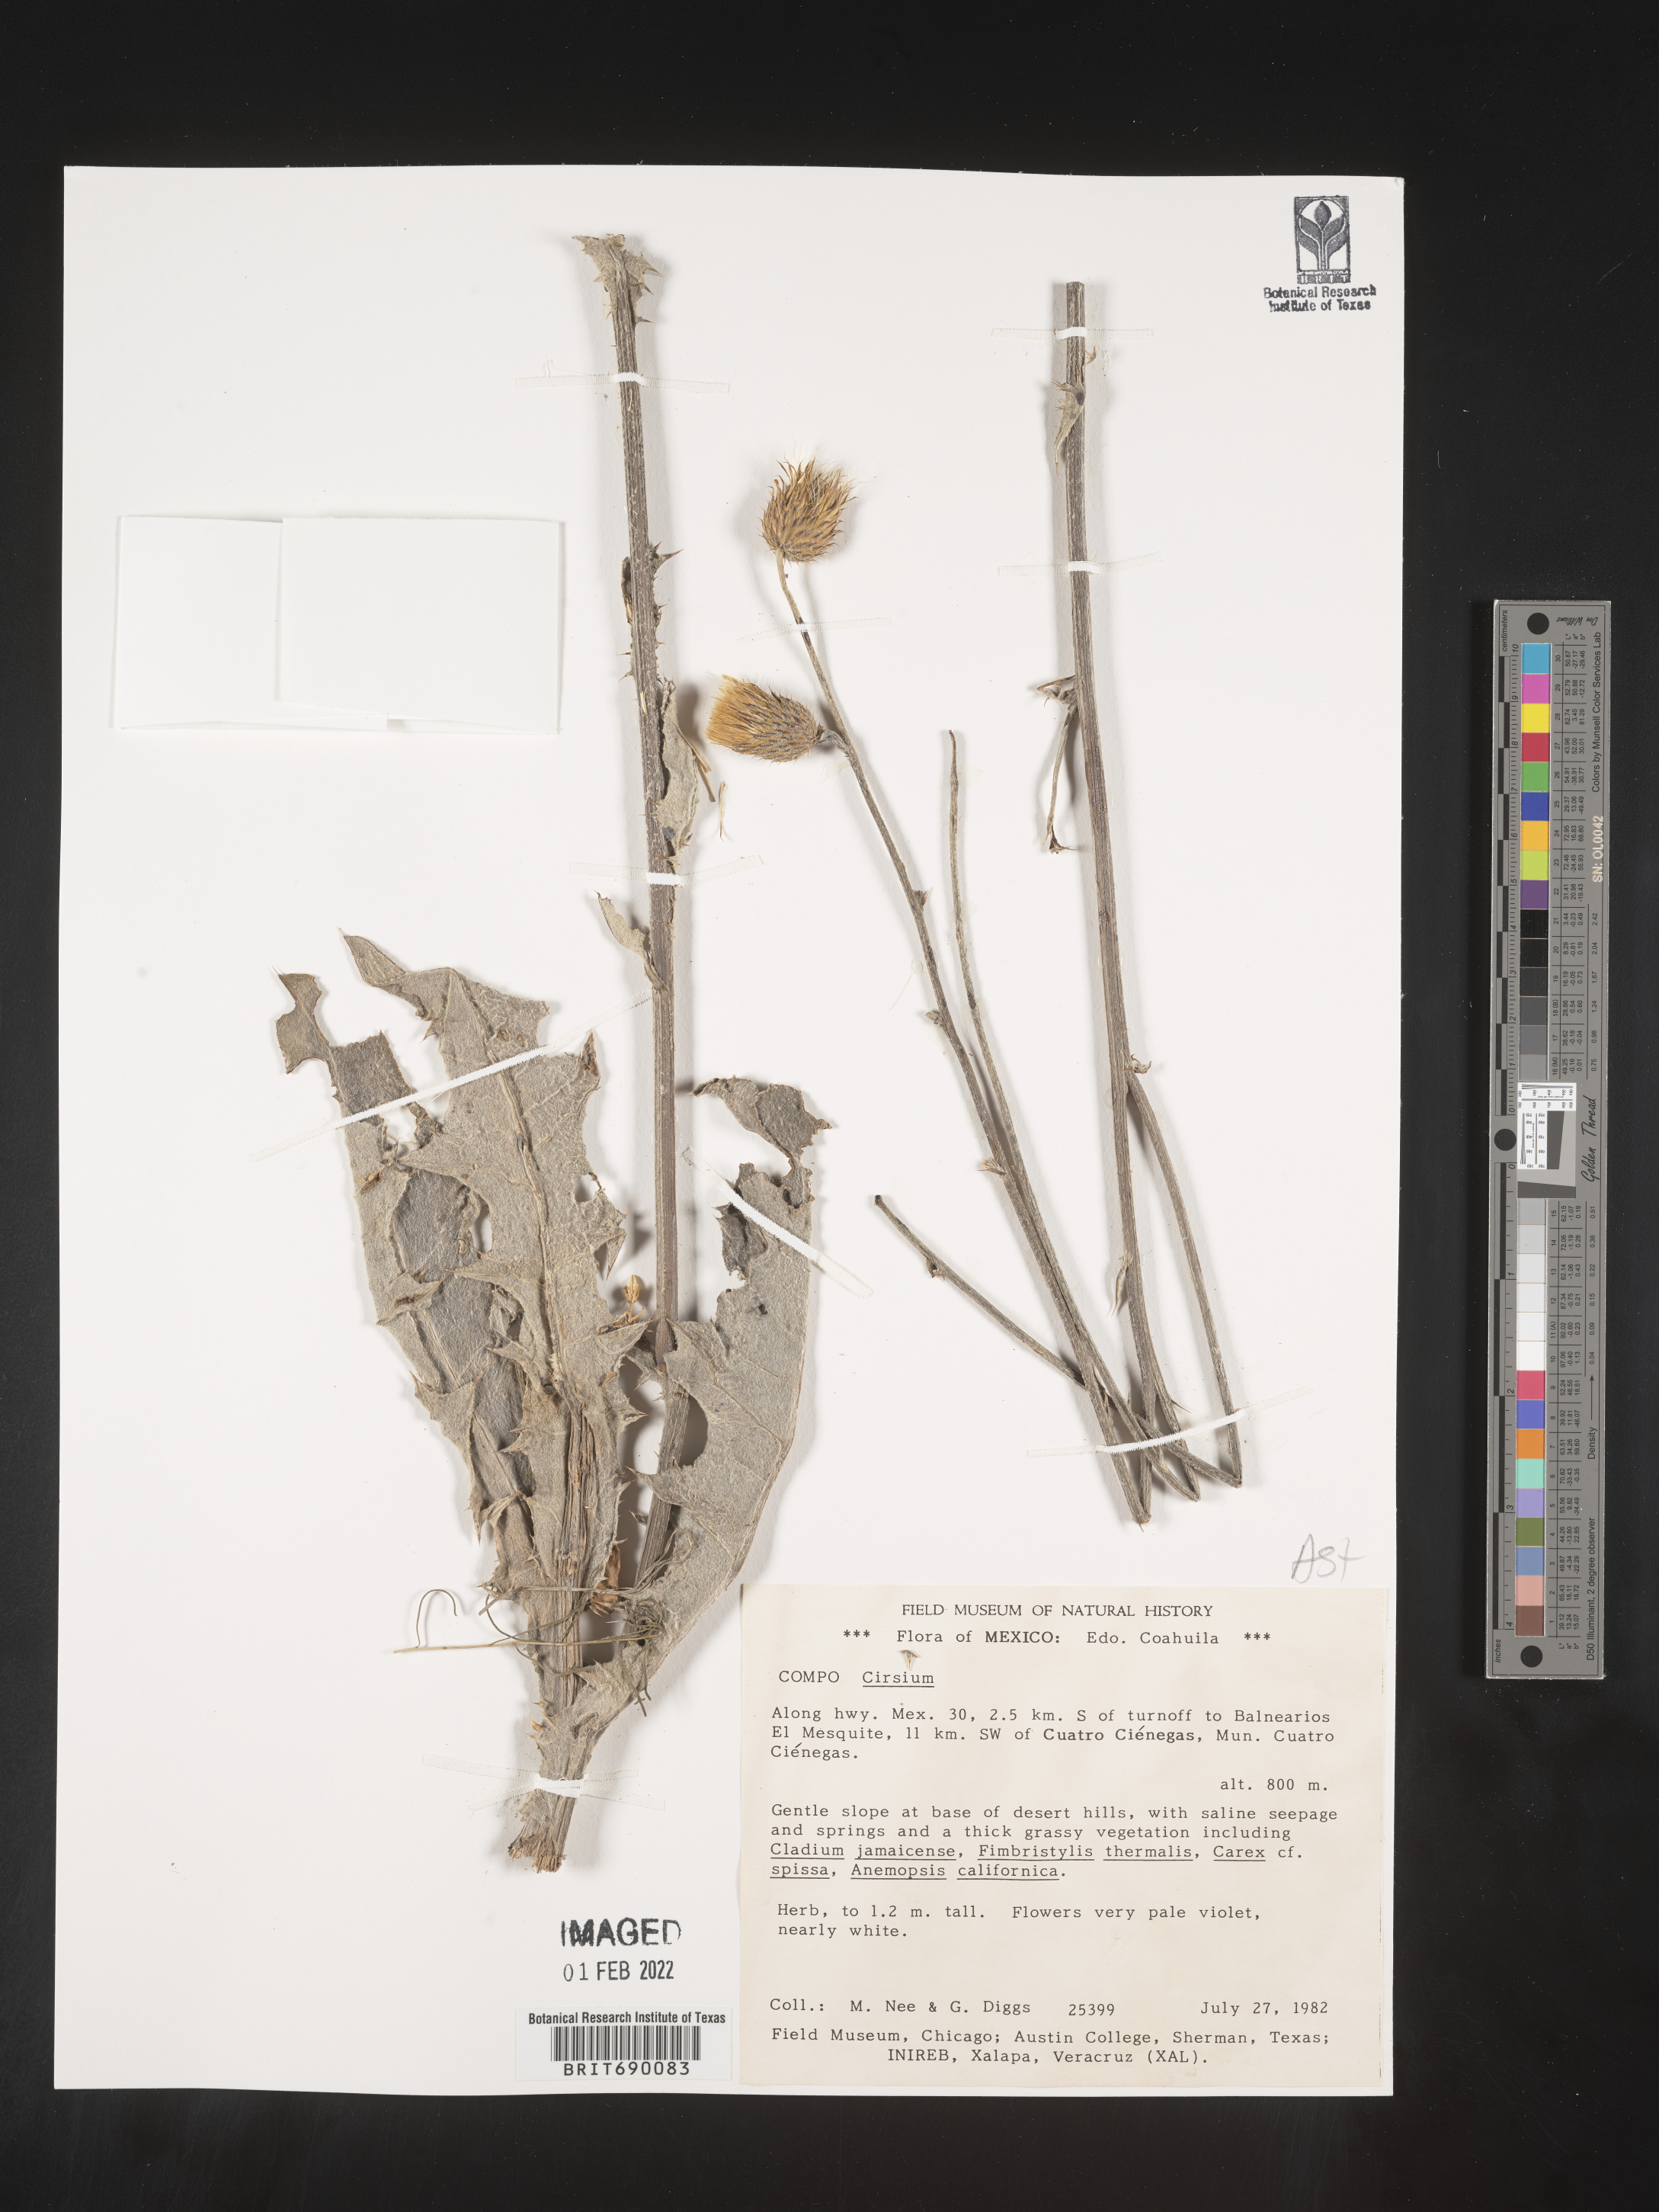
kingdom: Plantae
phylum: Tracheophyta
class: Magnoliopsida
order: Asterales
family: Asteraceae
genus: Cirsium
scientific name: Cirsium
